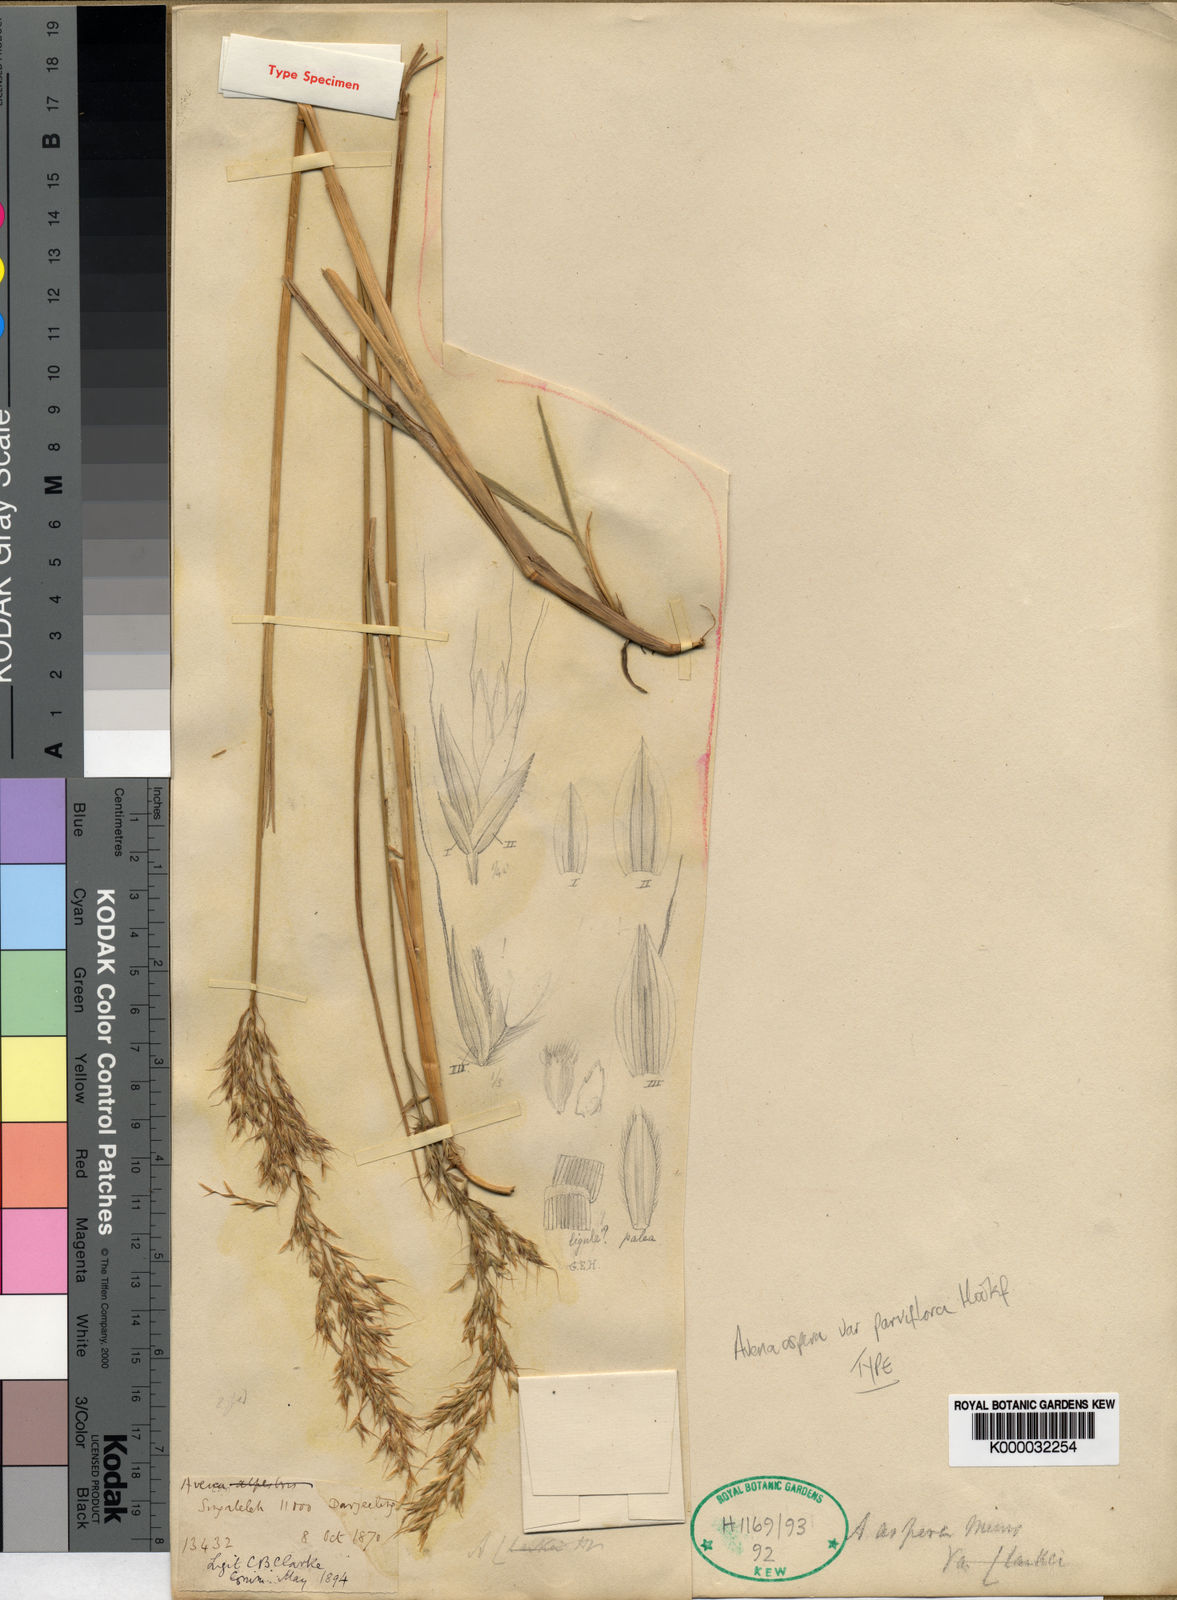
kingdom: Plantae
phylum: Tracheophyta
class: Liliopsida
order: Poales
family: Poaceae
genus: Tzveleviochloa
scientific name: Tzveleviochloa parviflora
